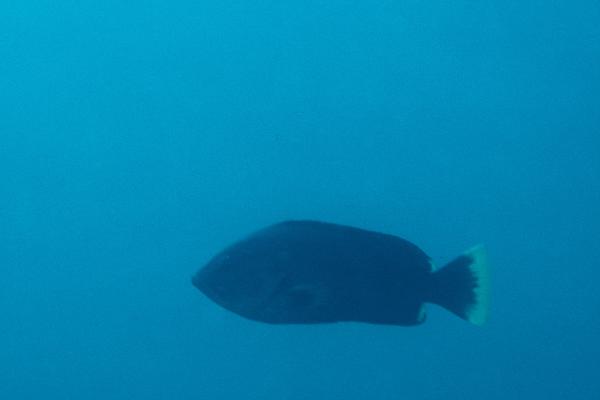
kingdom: Animalia
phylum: Chordata
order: Perciformes
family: Serranidae
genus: Epinephelus
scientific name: Epinephelus flavocaeruleus
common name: Blue and yellow grouper
